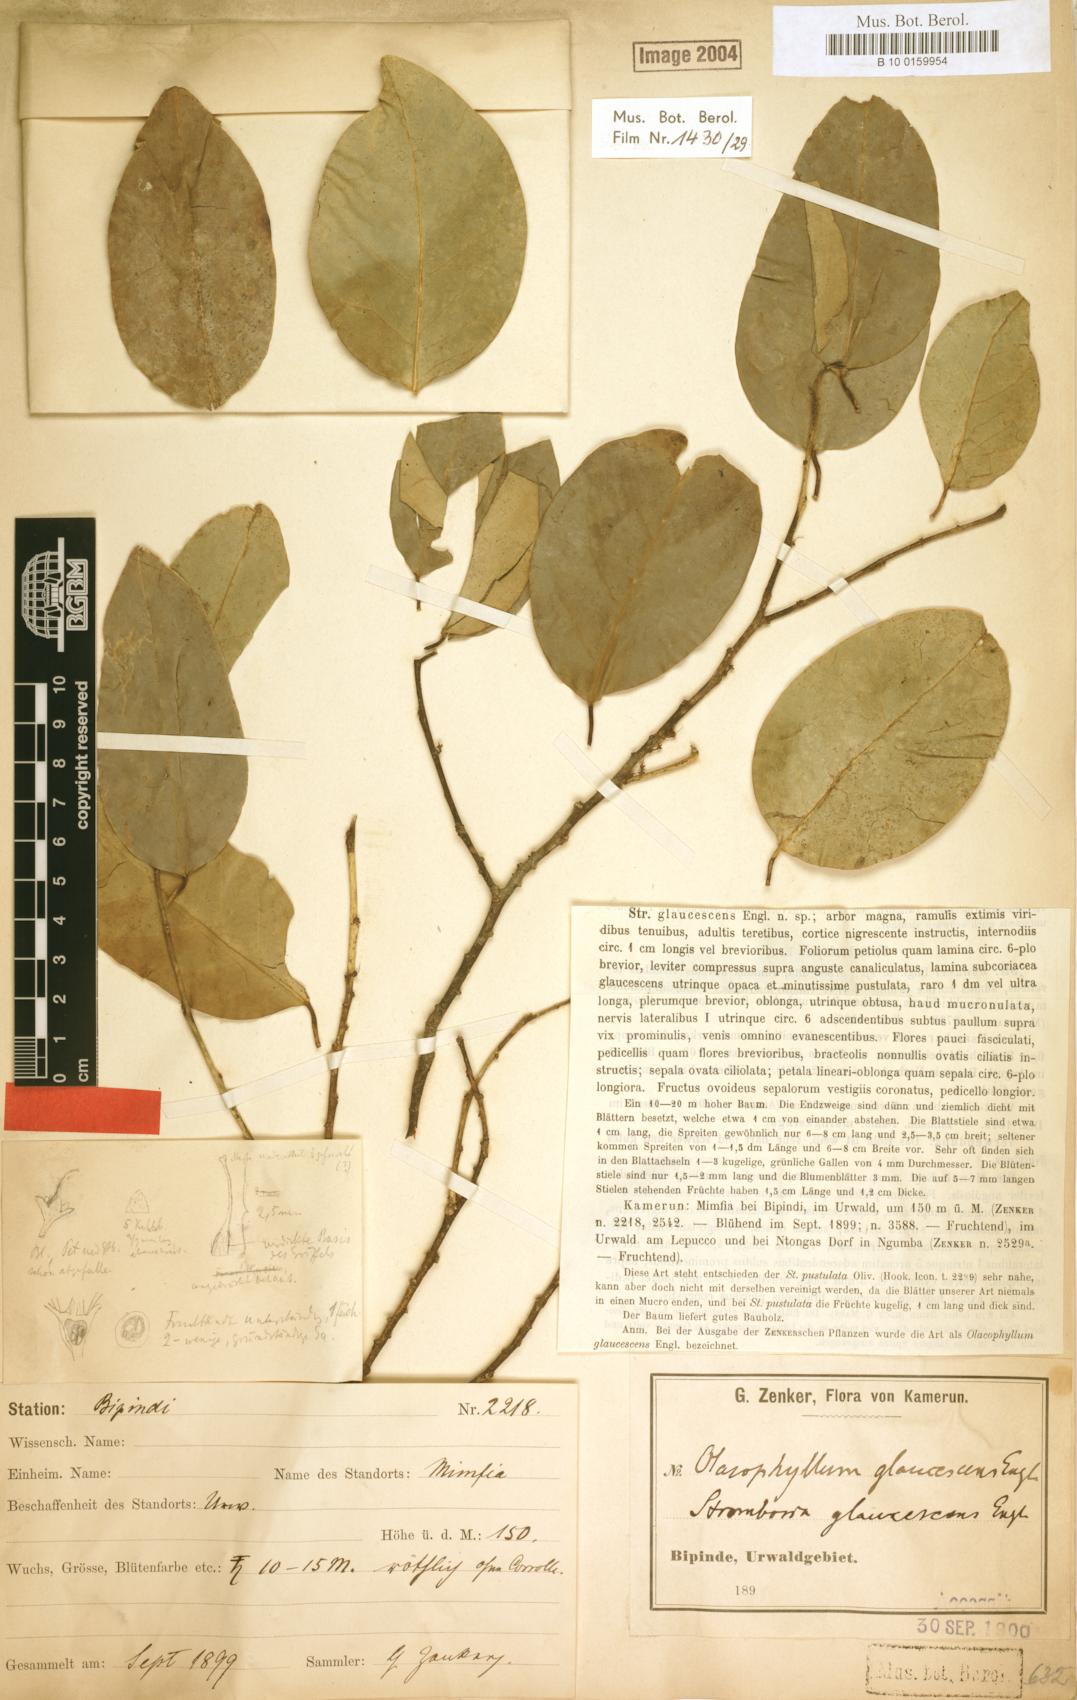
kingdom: Plantae
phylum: Tracheophyta
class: Magnoliopsida
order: Santalales
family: Strombosiaceae
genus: Strombosia
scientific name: Strombosia pustulata
